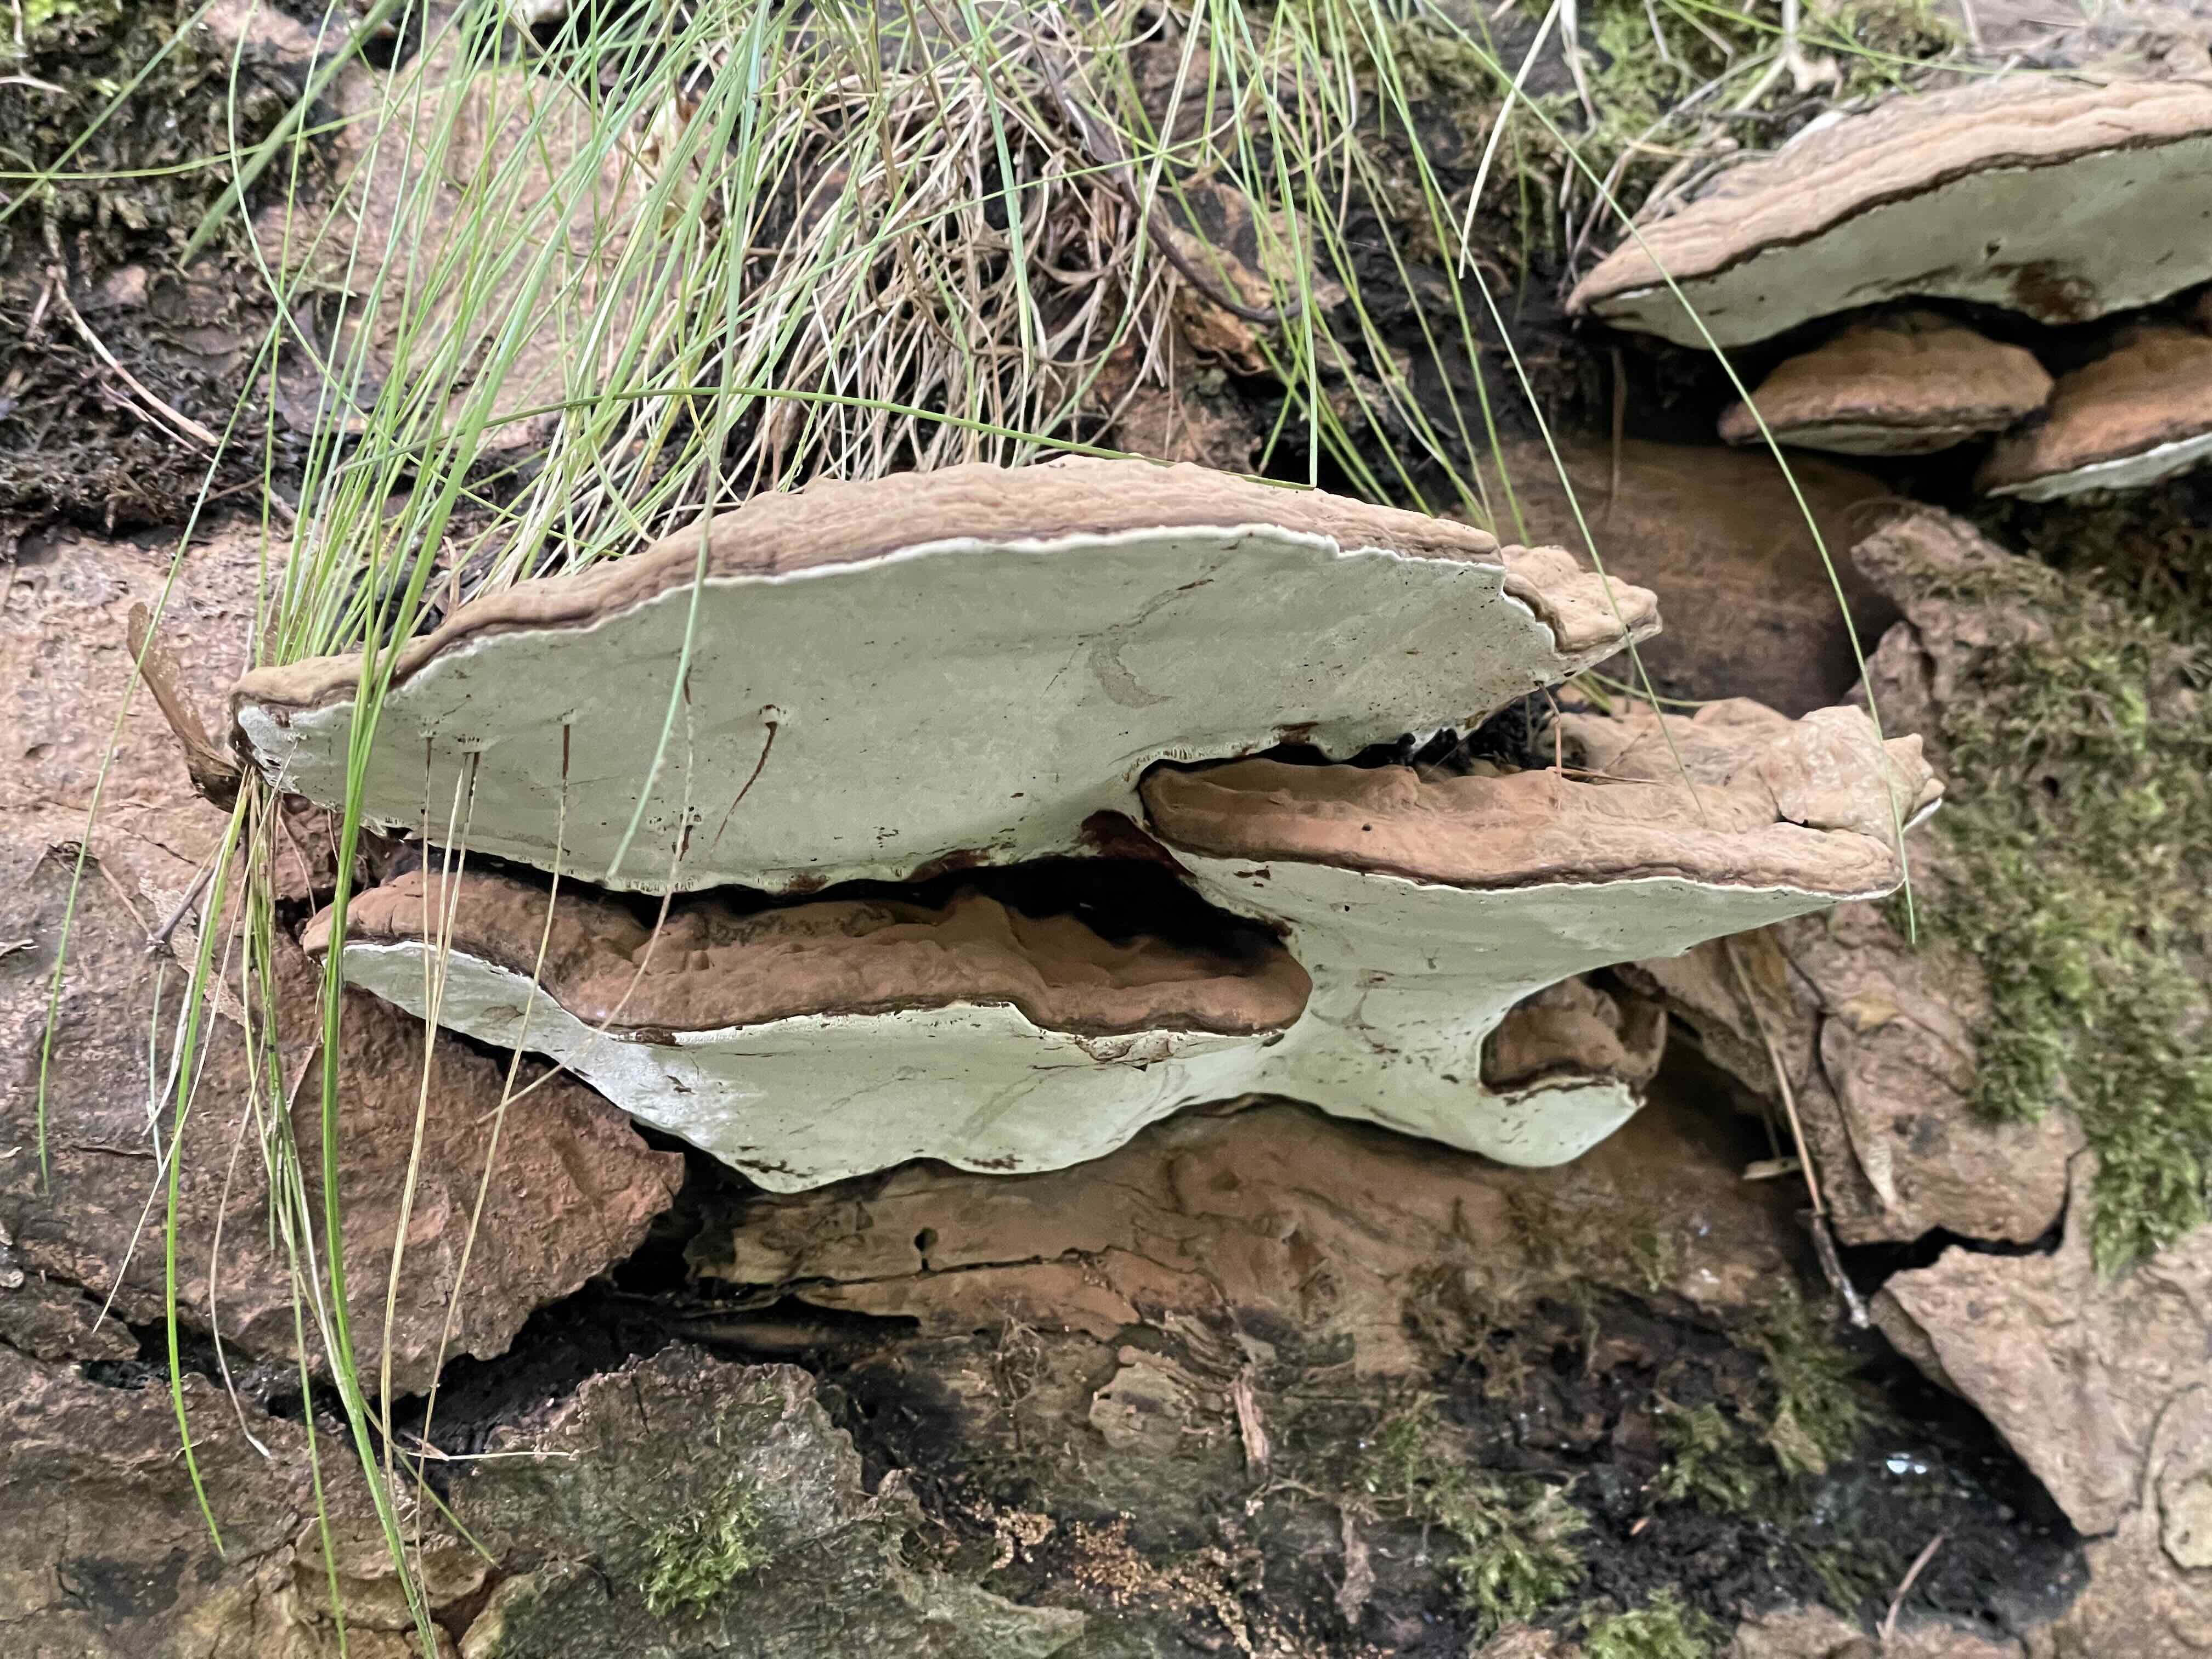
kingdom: Fungi
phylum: Basidiomycota
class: Agaricomycetes
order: Polyporales
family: Polyporaceae
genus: Ganoderma
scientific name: Ganoderma applanatum
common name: flad lakporesvamp
